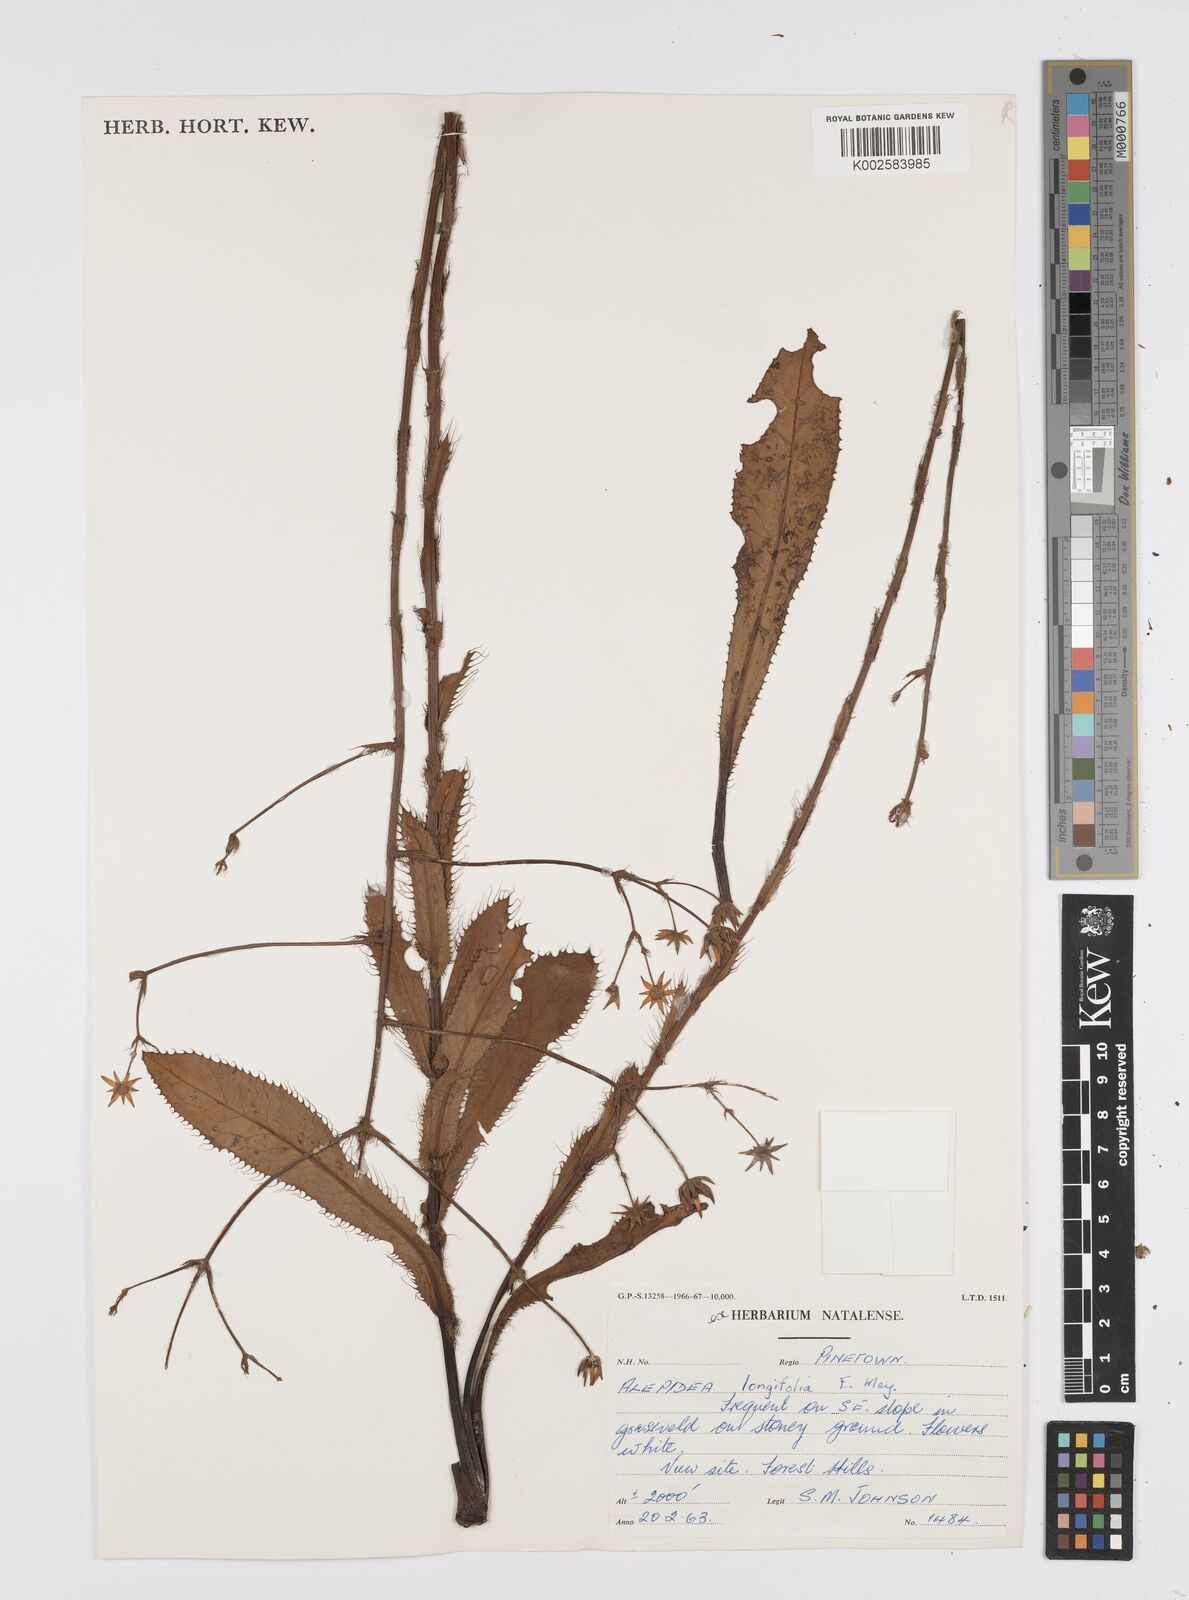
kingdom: Plantae
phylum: Tracheophyta
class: Magnoliopsida
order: Apiales
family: Apiaceae
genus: Alepidea
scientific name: Alepidea
